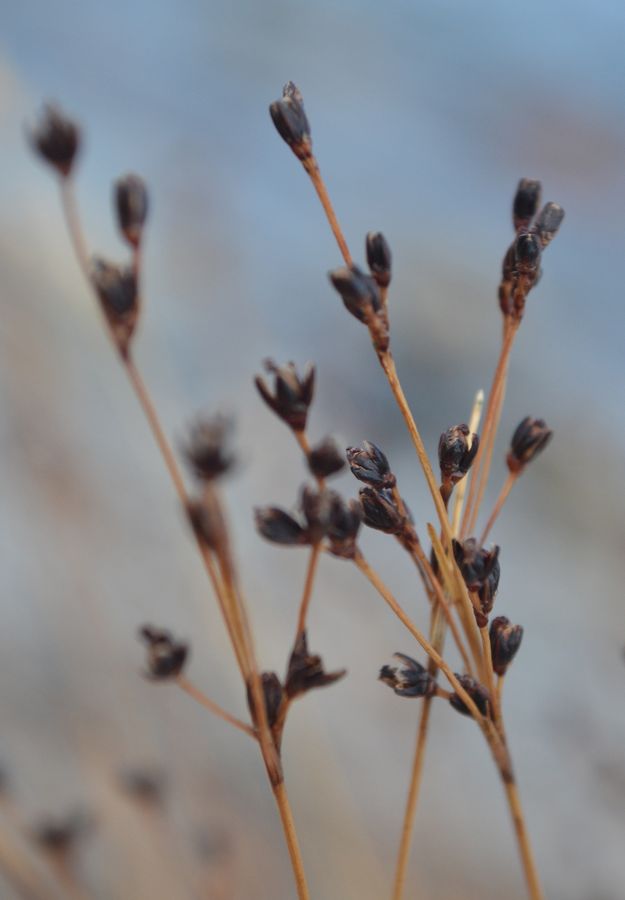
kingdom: Plantae
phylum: Tracheophyta
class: Liliopsida
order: Poales
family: Juncaceae
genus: Juncus
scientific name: Juncus gerardi
